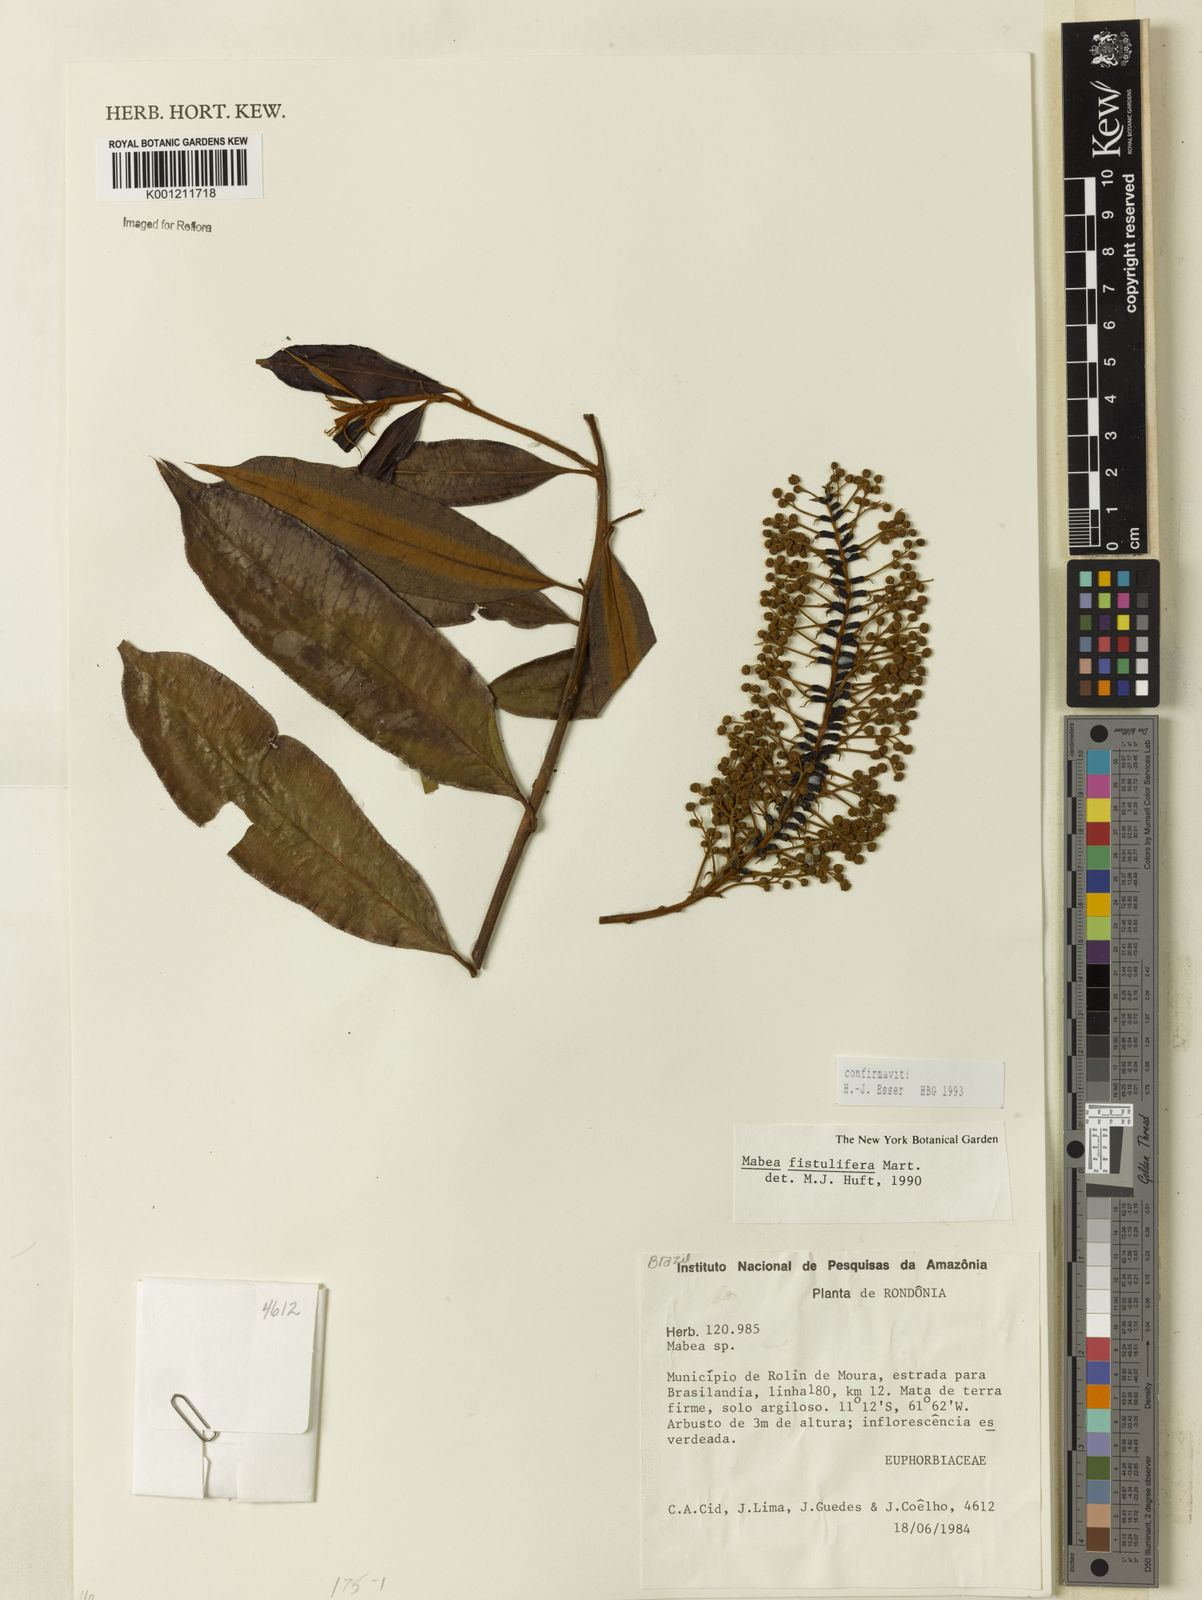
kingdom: Plantae
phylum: Tracheophyta
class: Magnoliopsida
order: Malpighiales
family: Euphorbiaceae
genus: Mabea
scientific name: Mabea fistulifera
